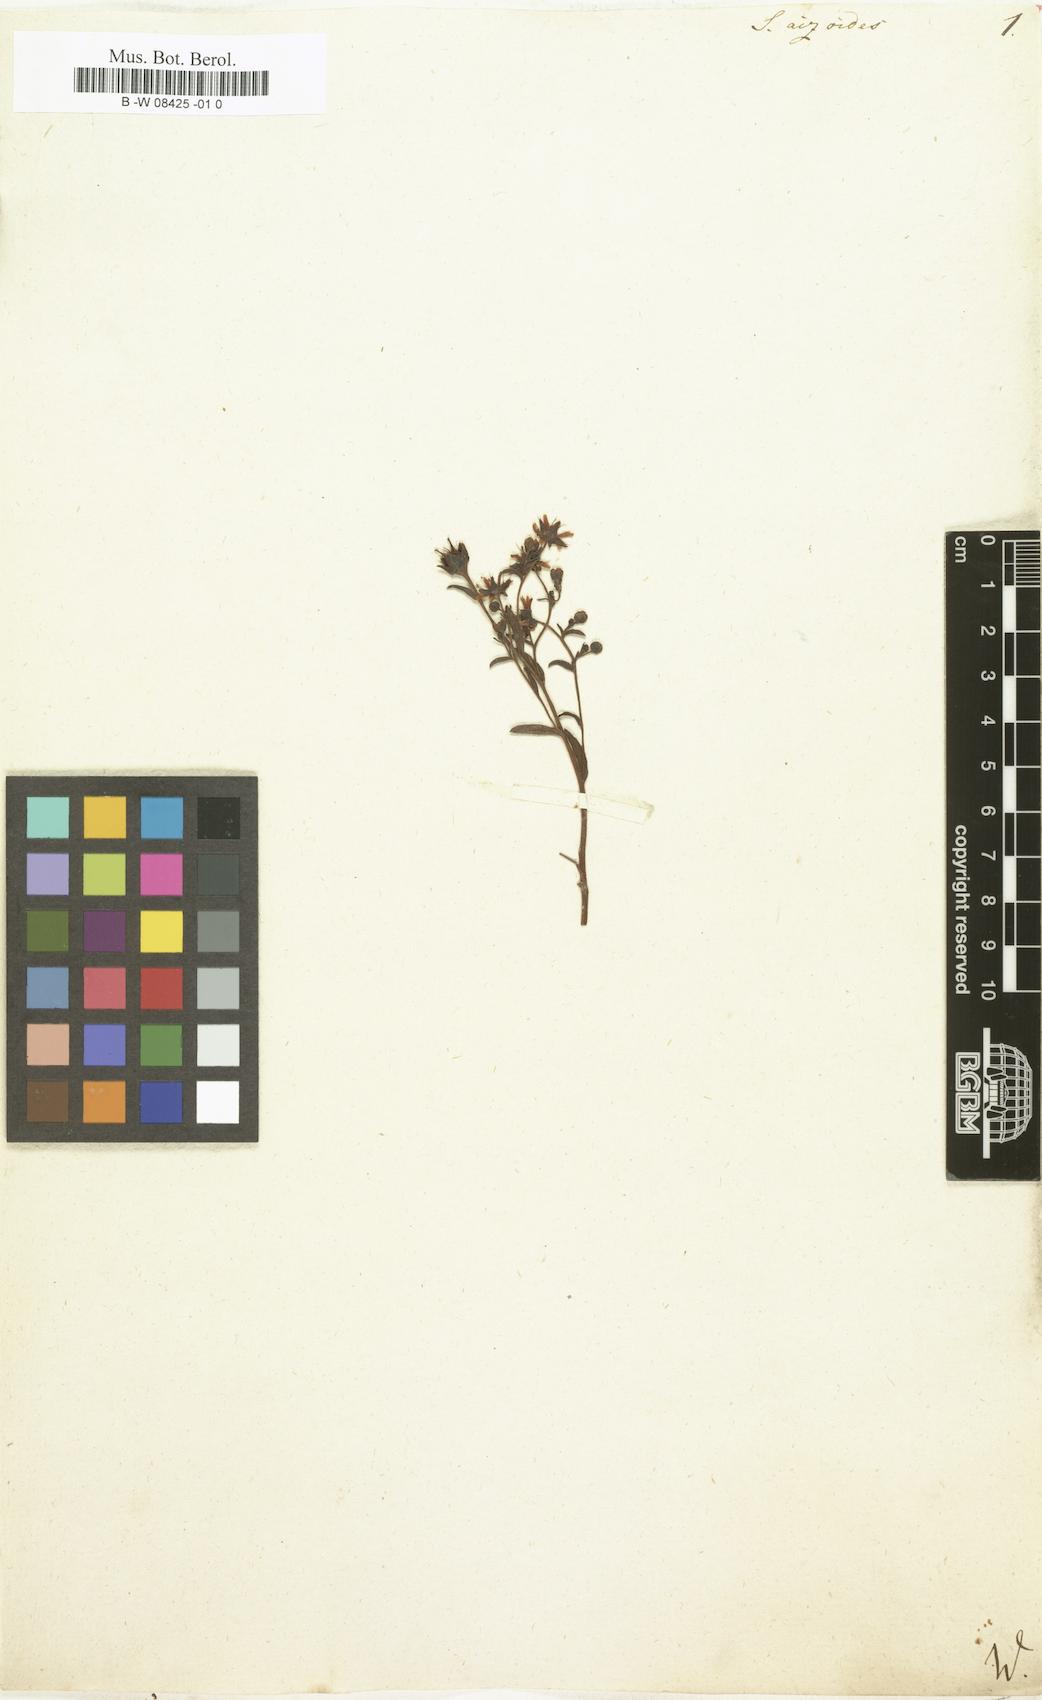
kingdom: Plantae
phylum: Tracheophyta
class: Magnoliopsida
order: Saxifragales
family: Saxifragaceae
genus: Saxifraga
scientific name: Saxifraga aizoides
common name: Yellow mountain saxifrage
